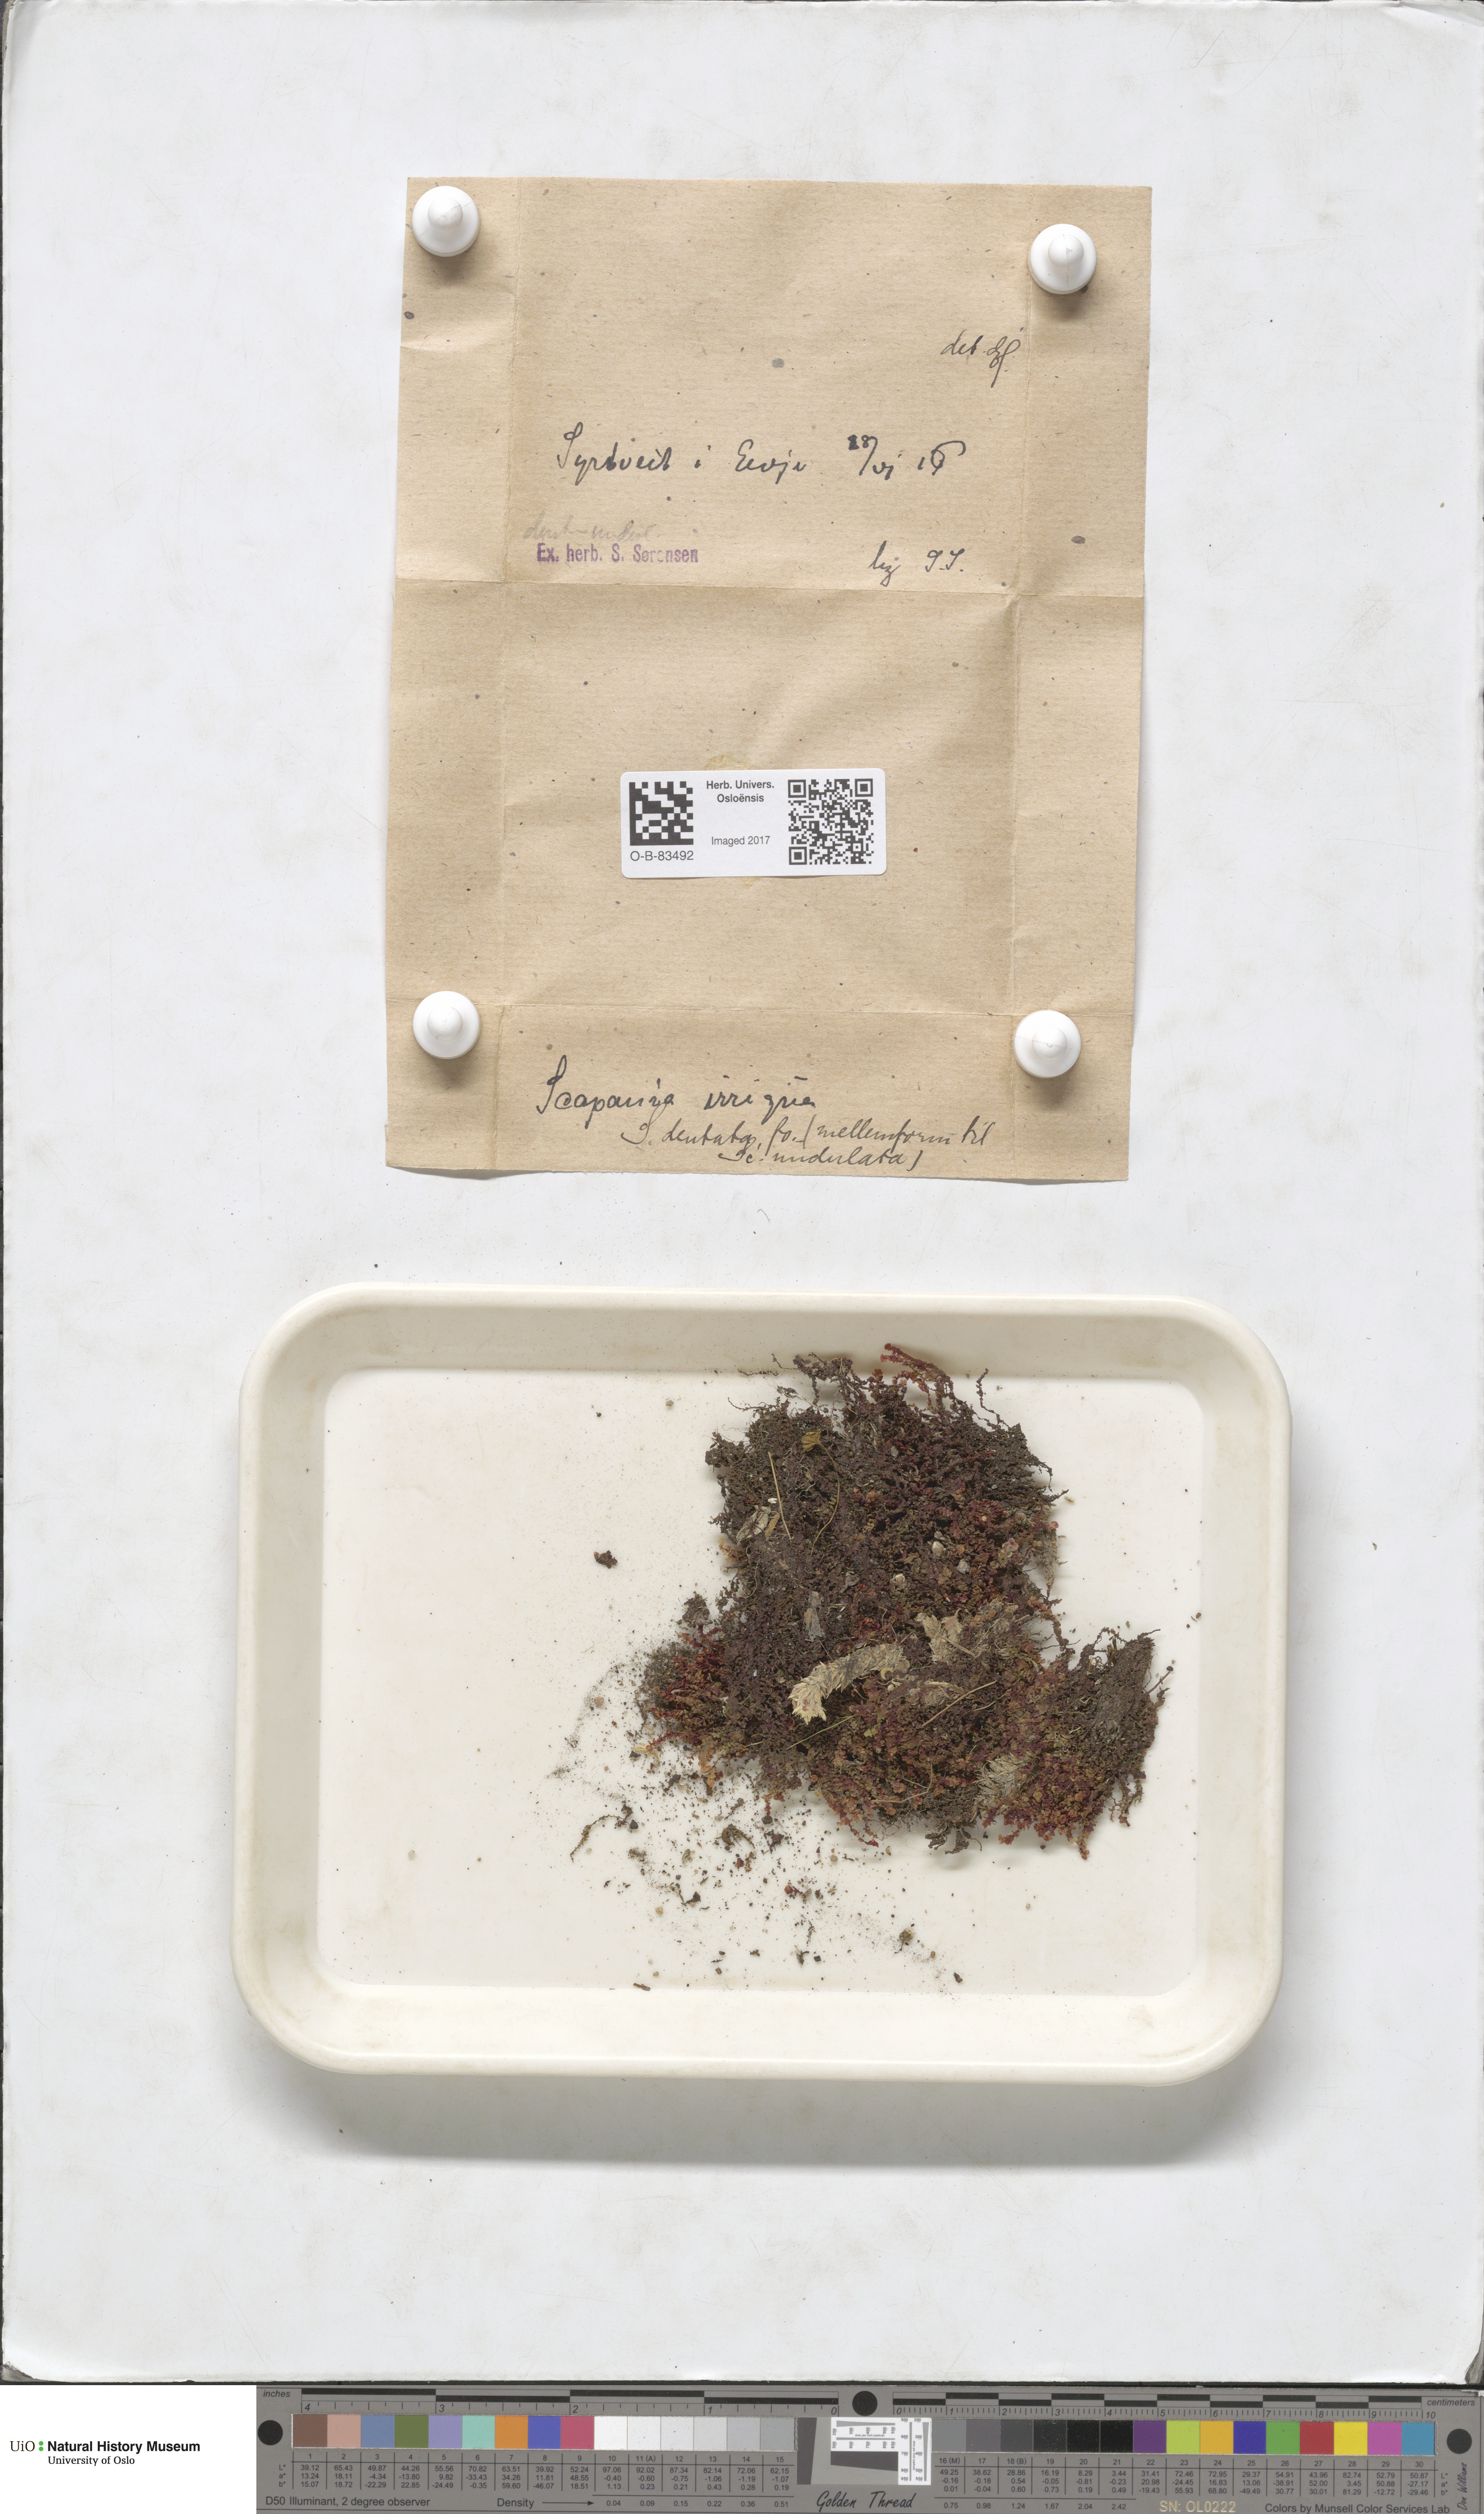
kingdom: Plantae
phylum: Marchantiophyta
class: Jungermanniopsida
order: Jungermanniales
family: Scapaniaceae
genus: Scapania
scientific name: Scapania undulata
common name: Water earwort
